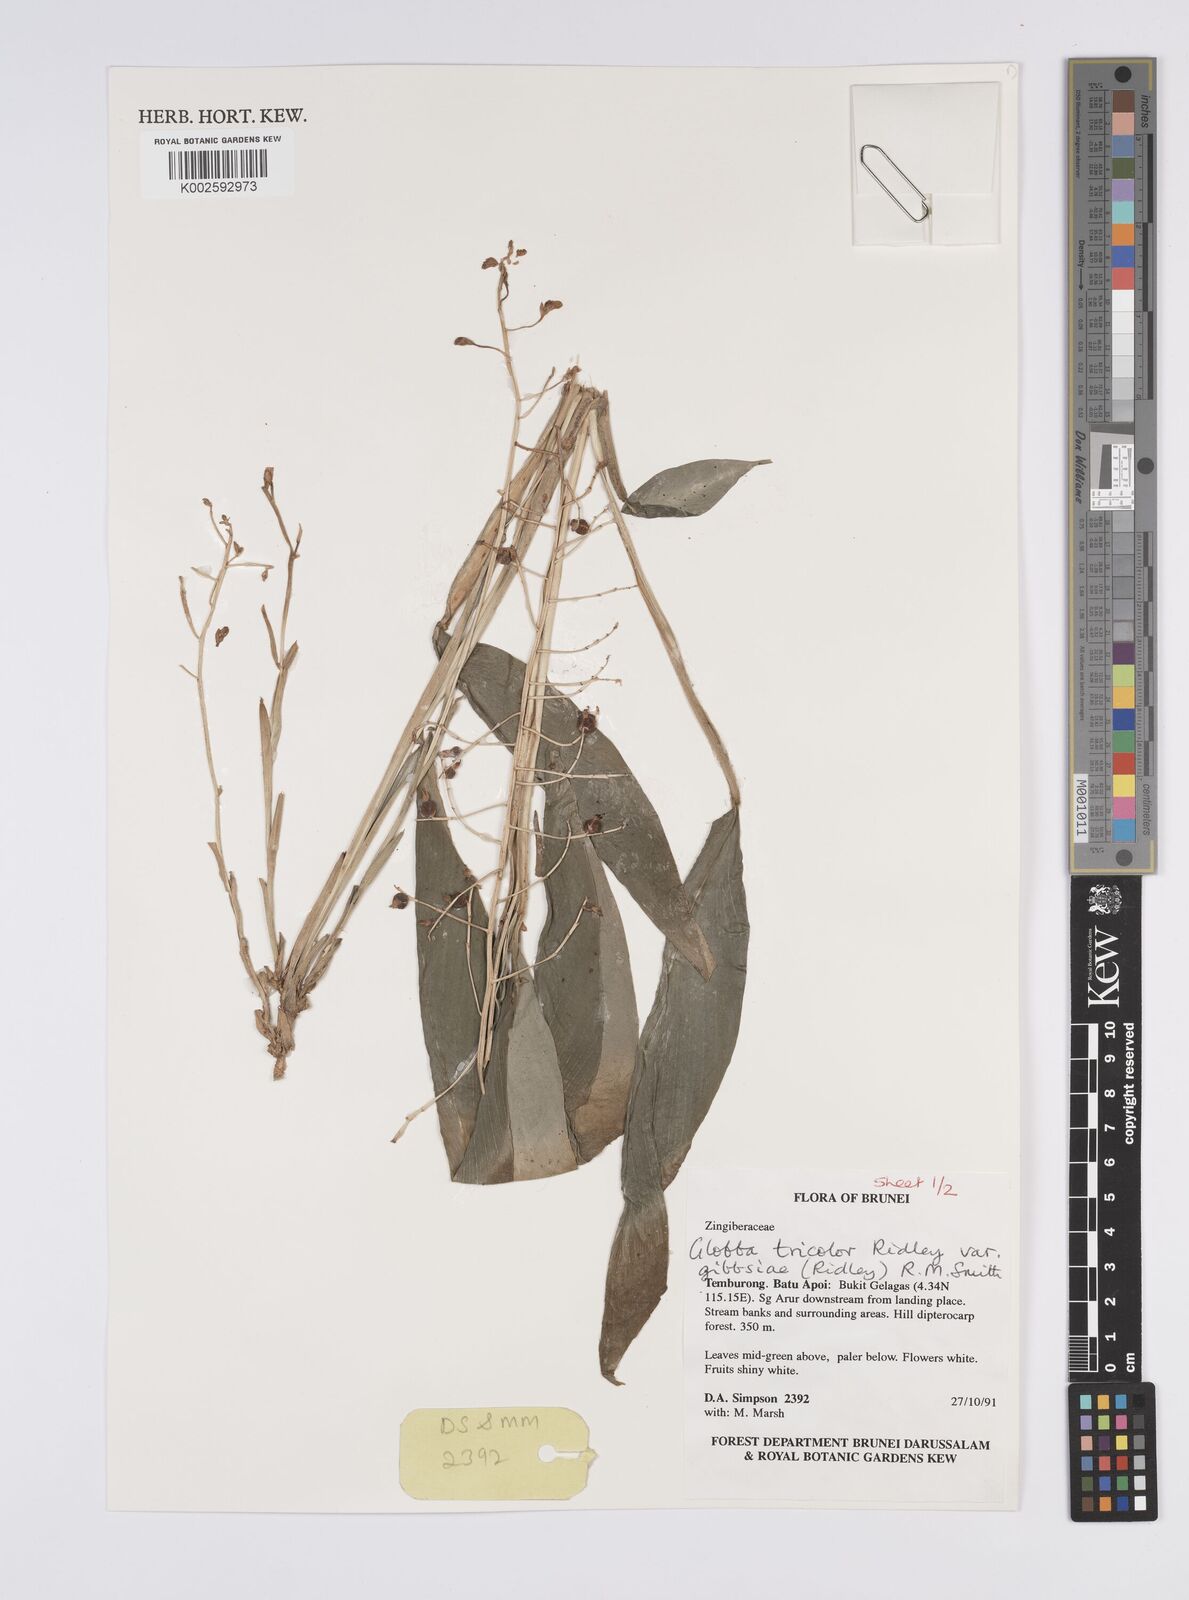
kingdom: Plantae
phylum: Tracheophyta
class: Liliopsida
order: Zingiberales
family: Zingiberaceae
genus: Globba
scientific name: Globba tricolor
